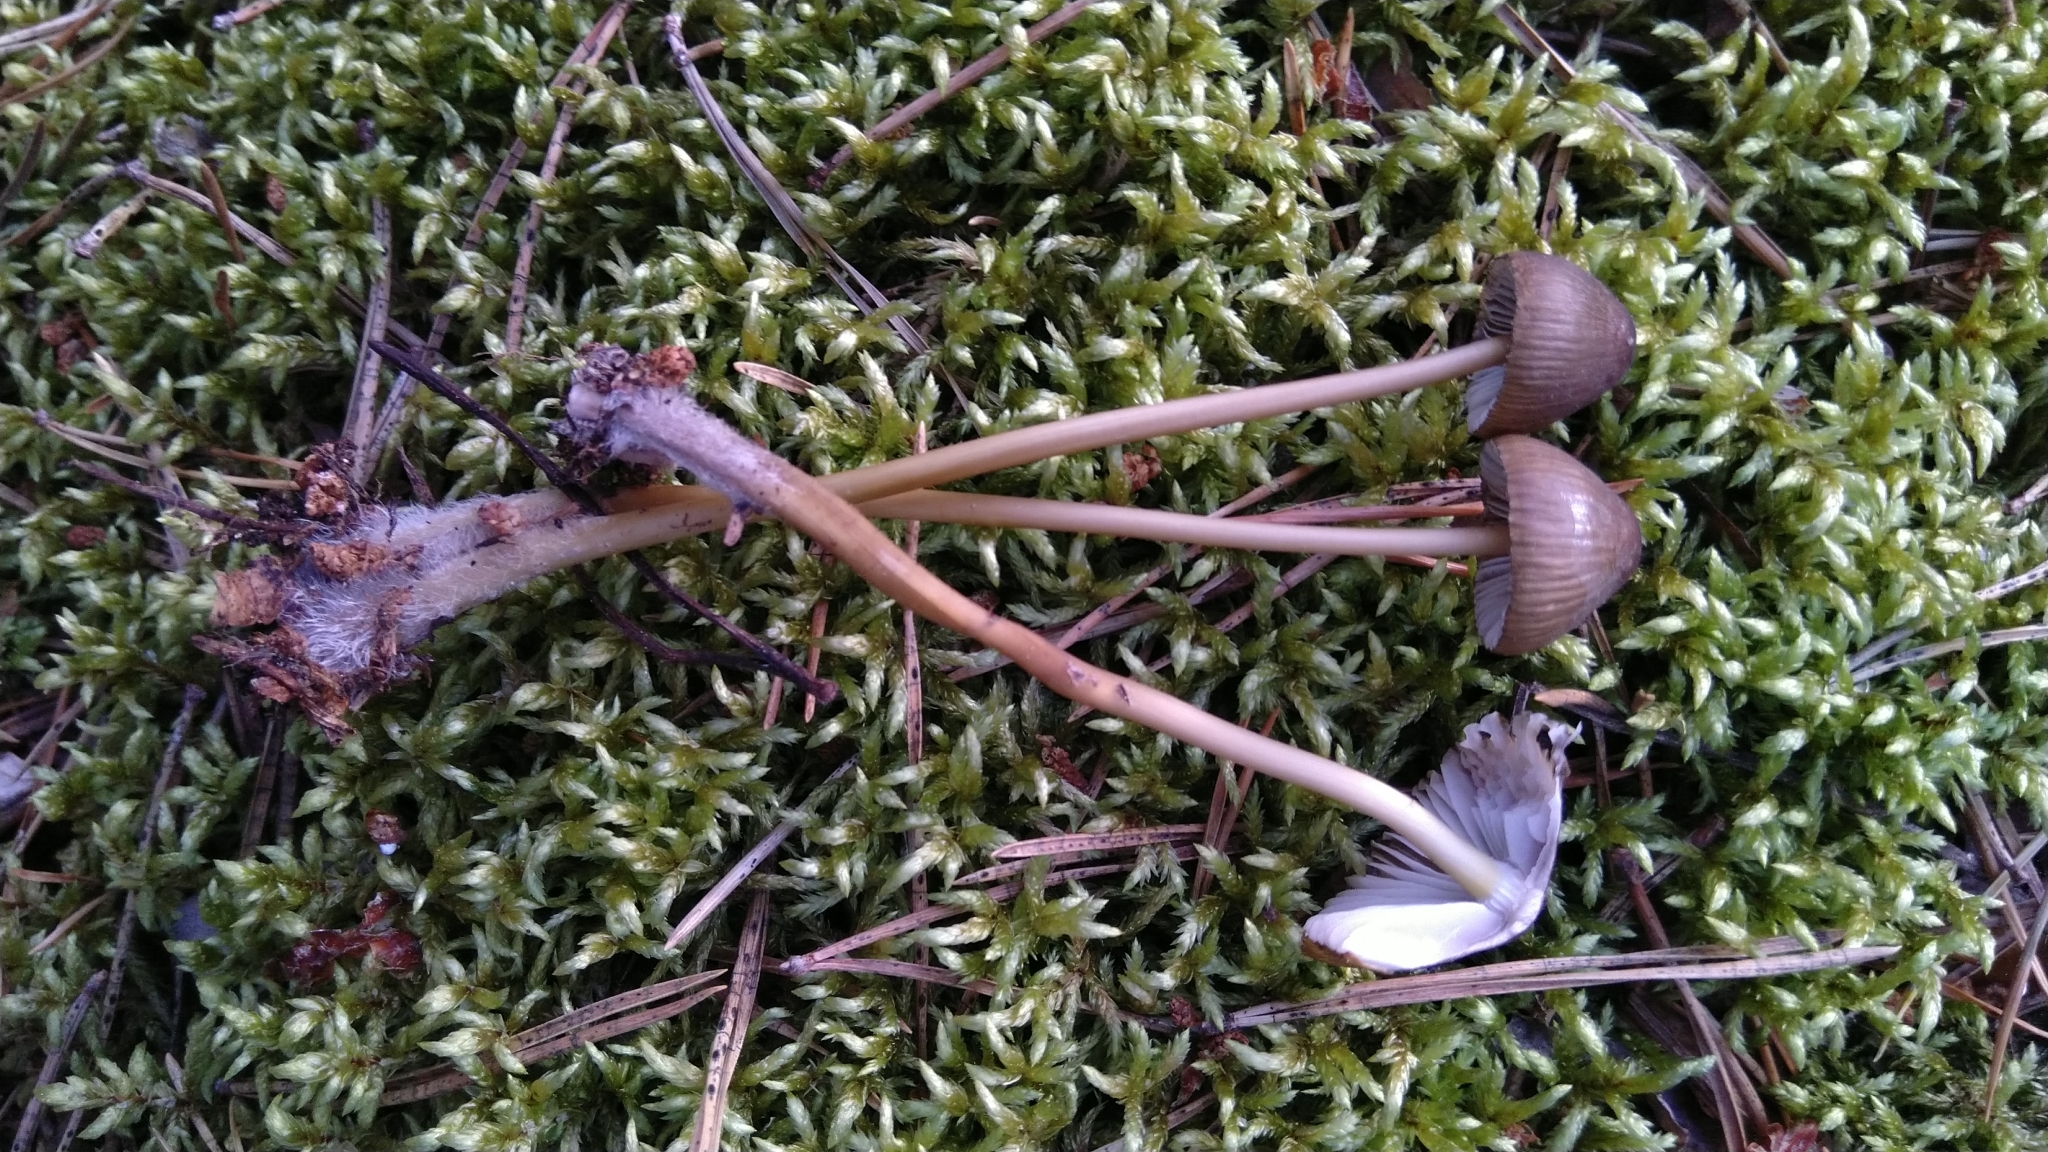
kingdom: Fungi
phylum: Basidiomycota
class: Agaricomycetes
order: Agaricales
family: Mycenaceae
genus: Mycena
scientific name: Mycena
